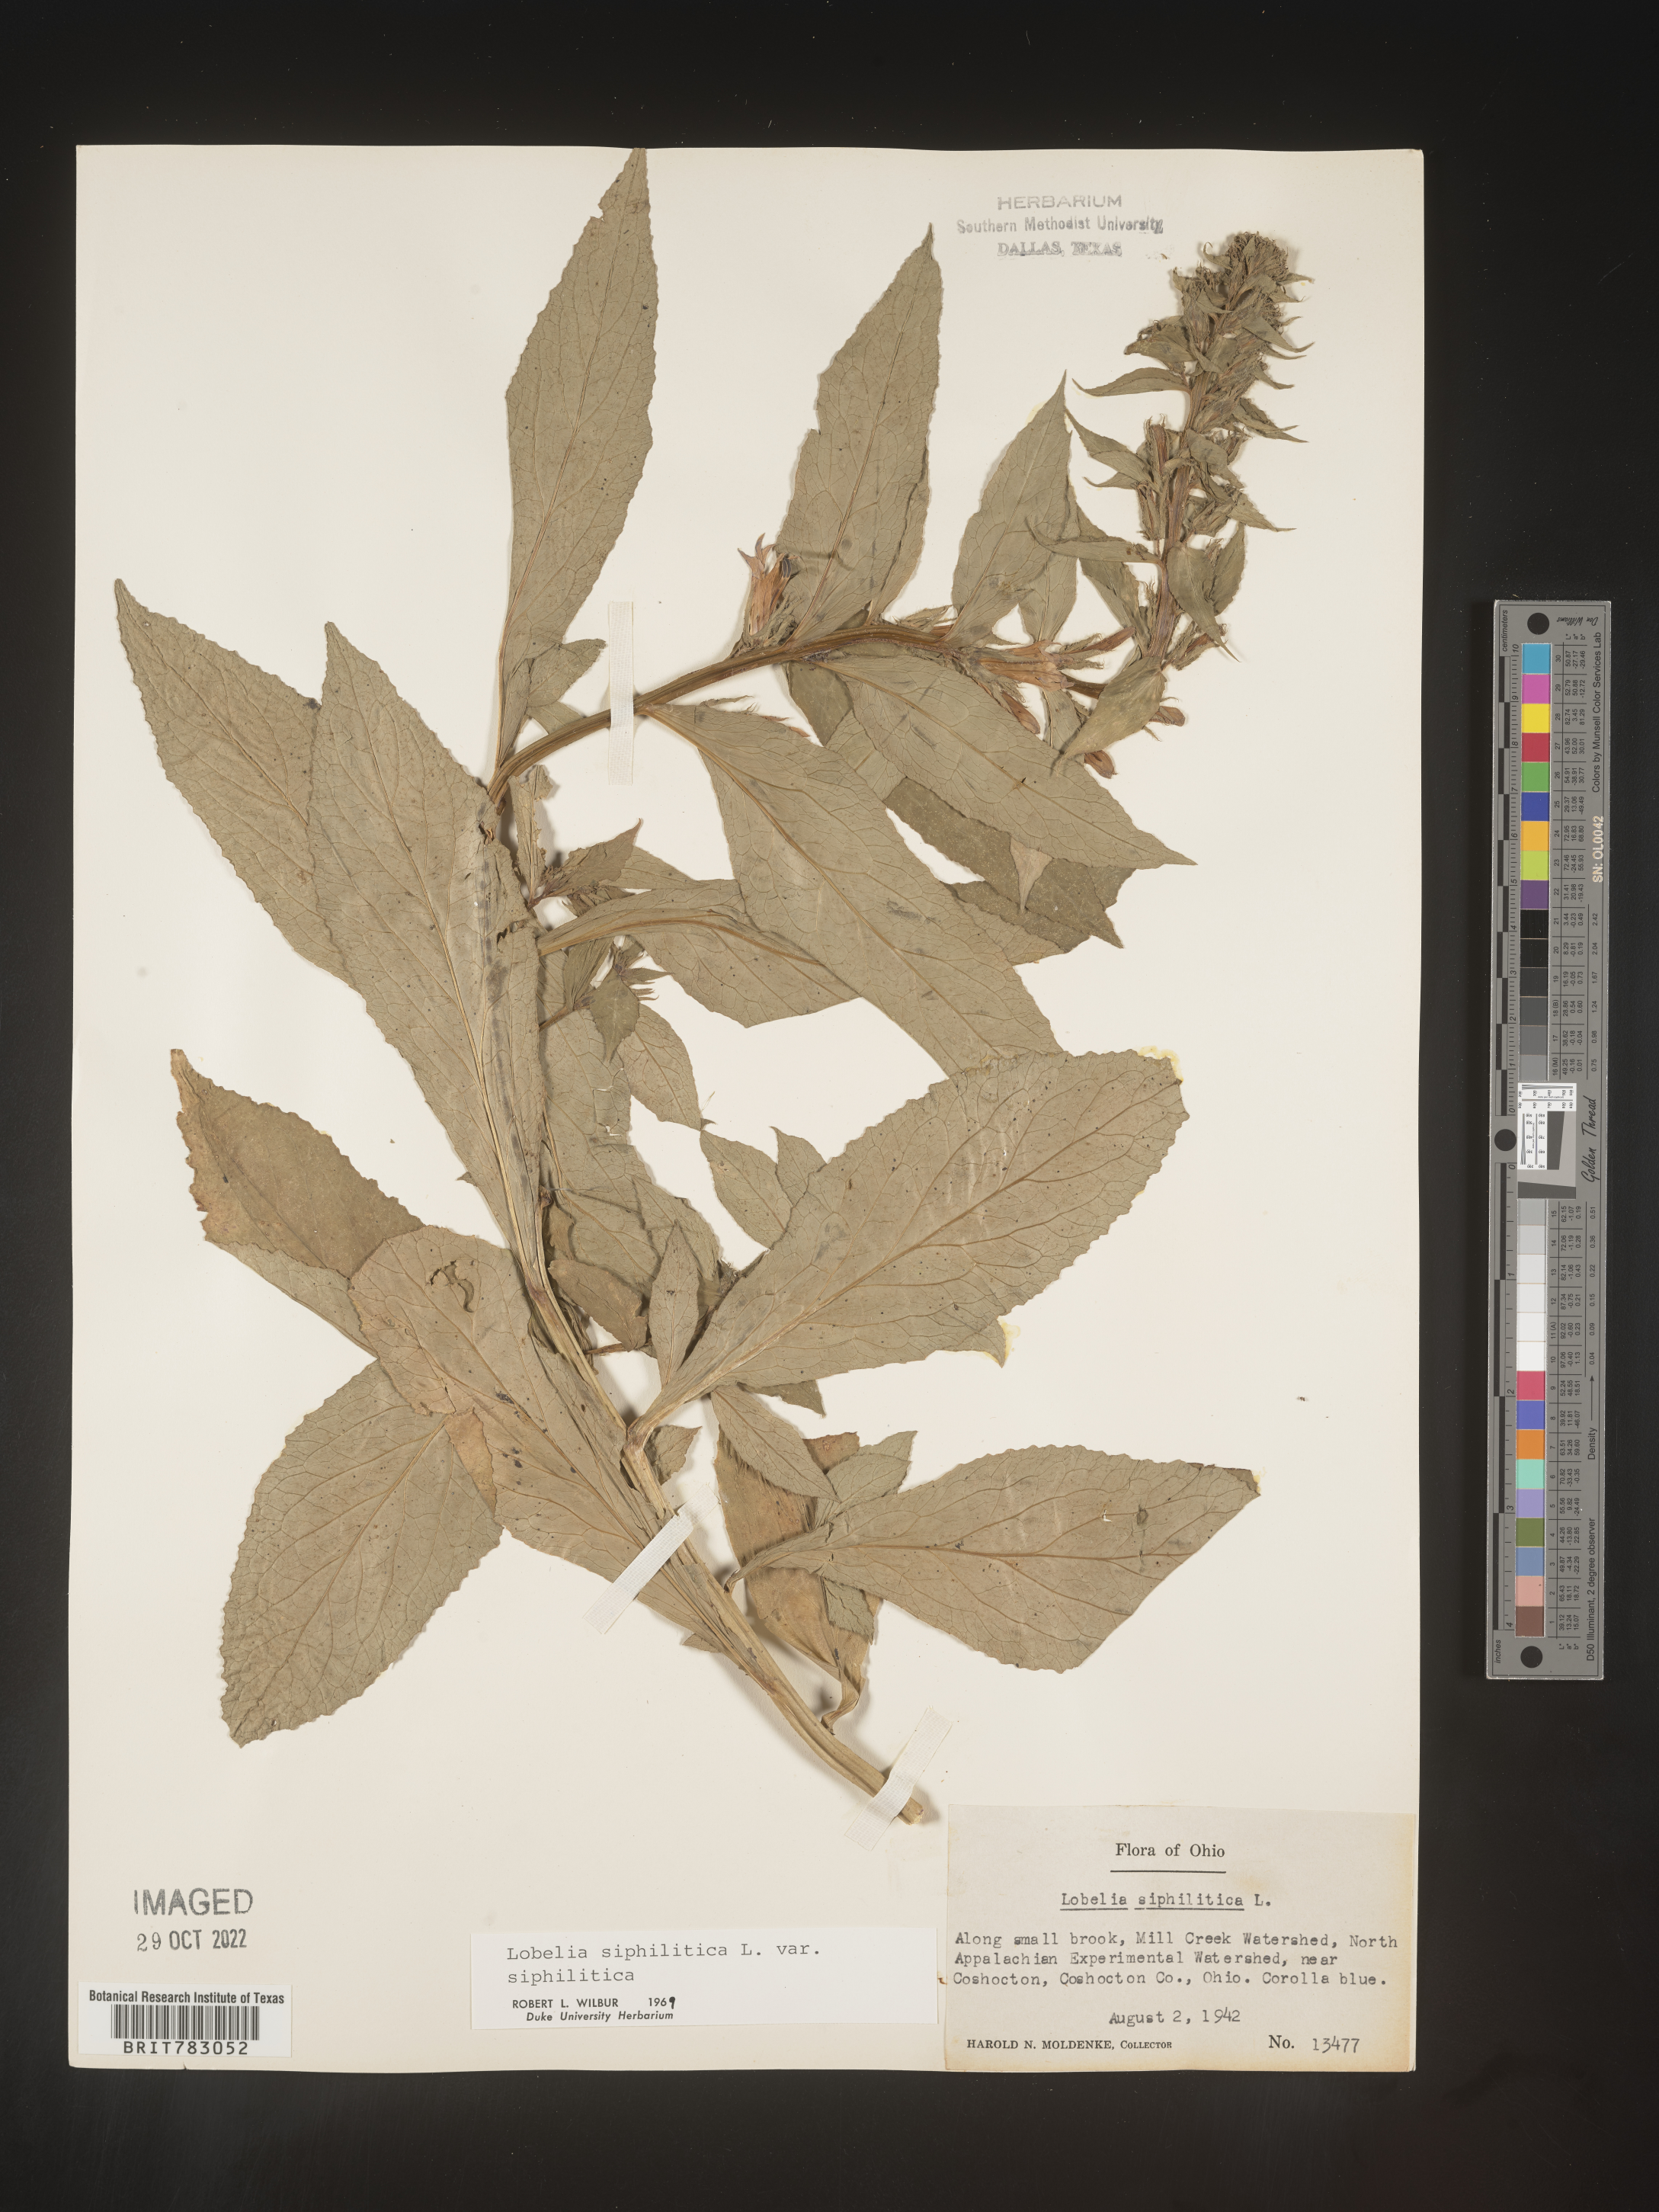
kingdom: Plantae
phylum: Tracheophyta
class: Magnoliopsida
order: Asterales
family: Campanulaceae
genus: Lobelia
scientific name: Lobelia siphilitica
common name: Great lobelia
